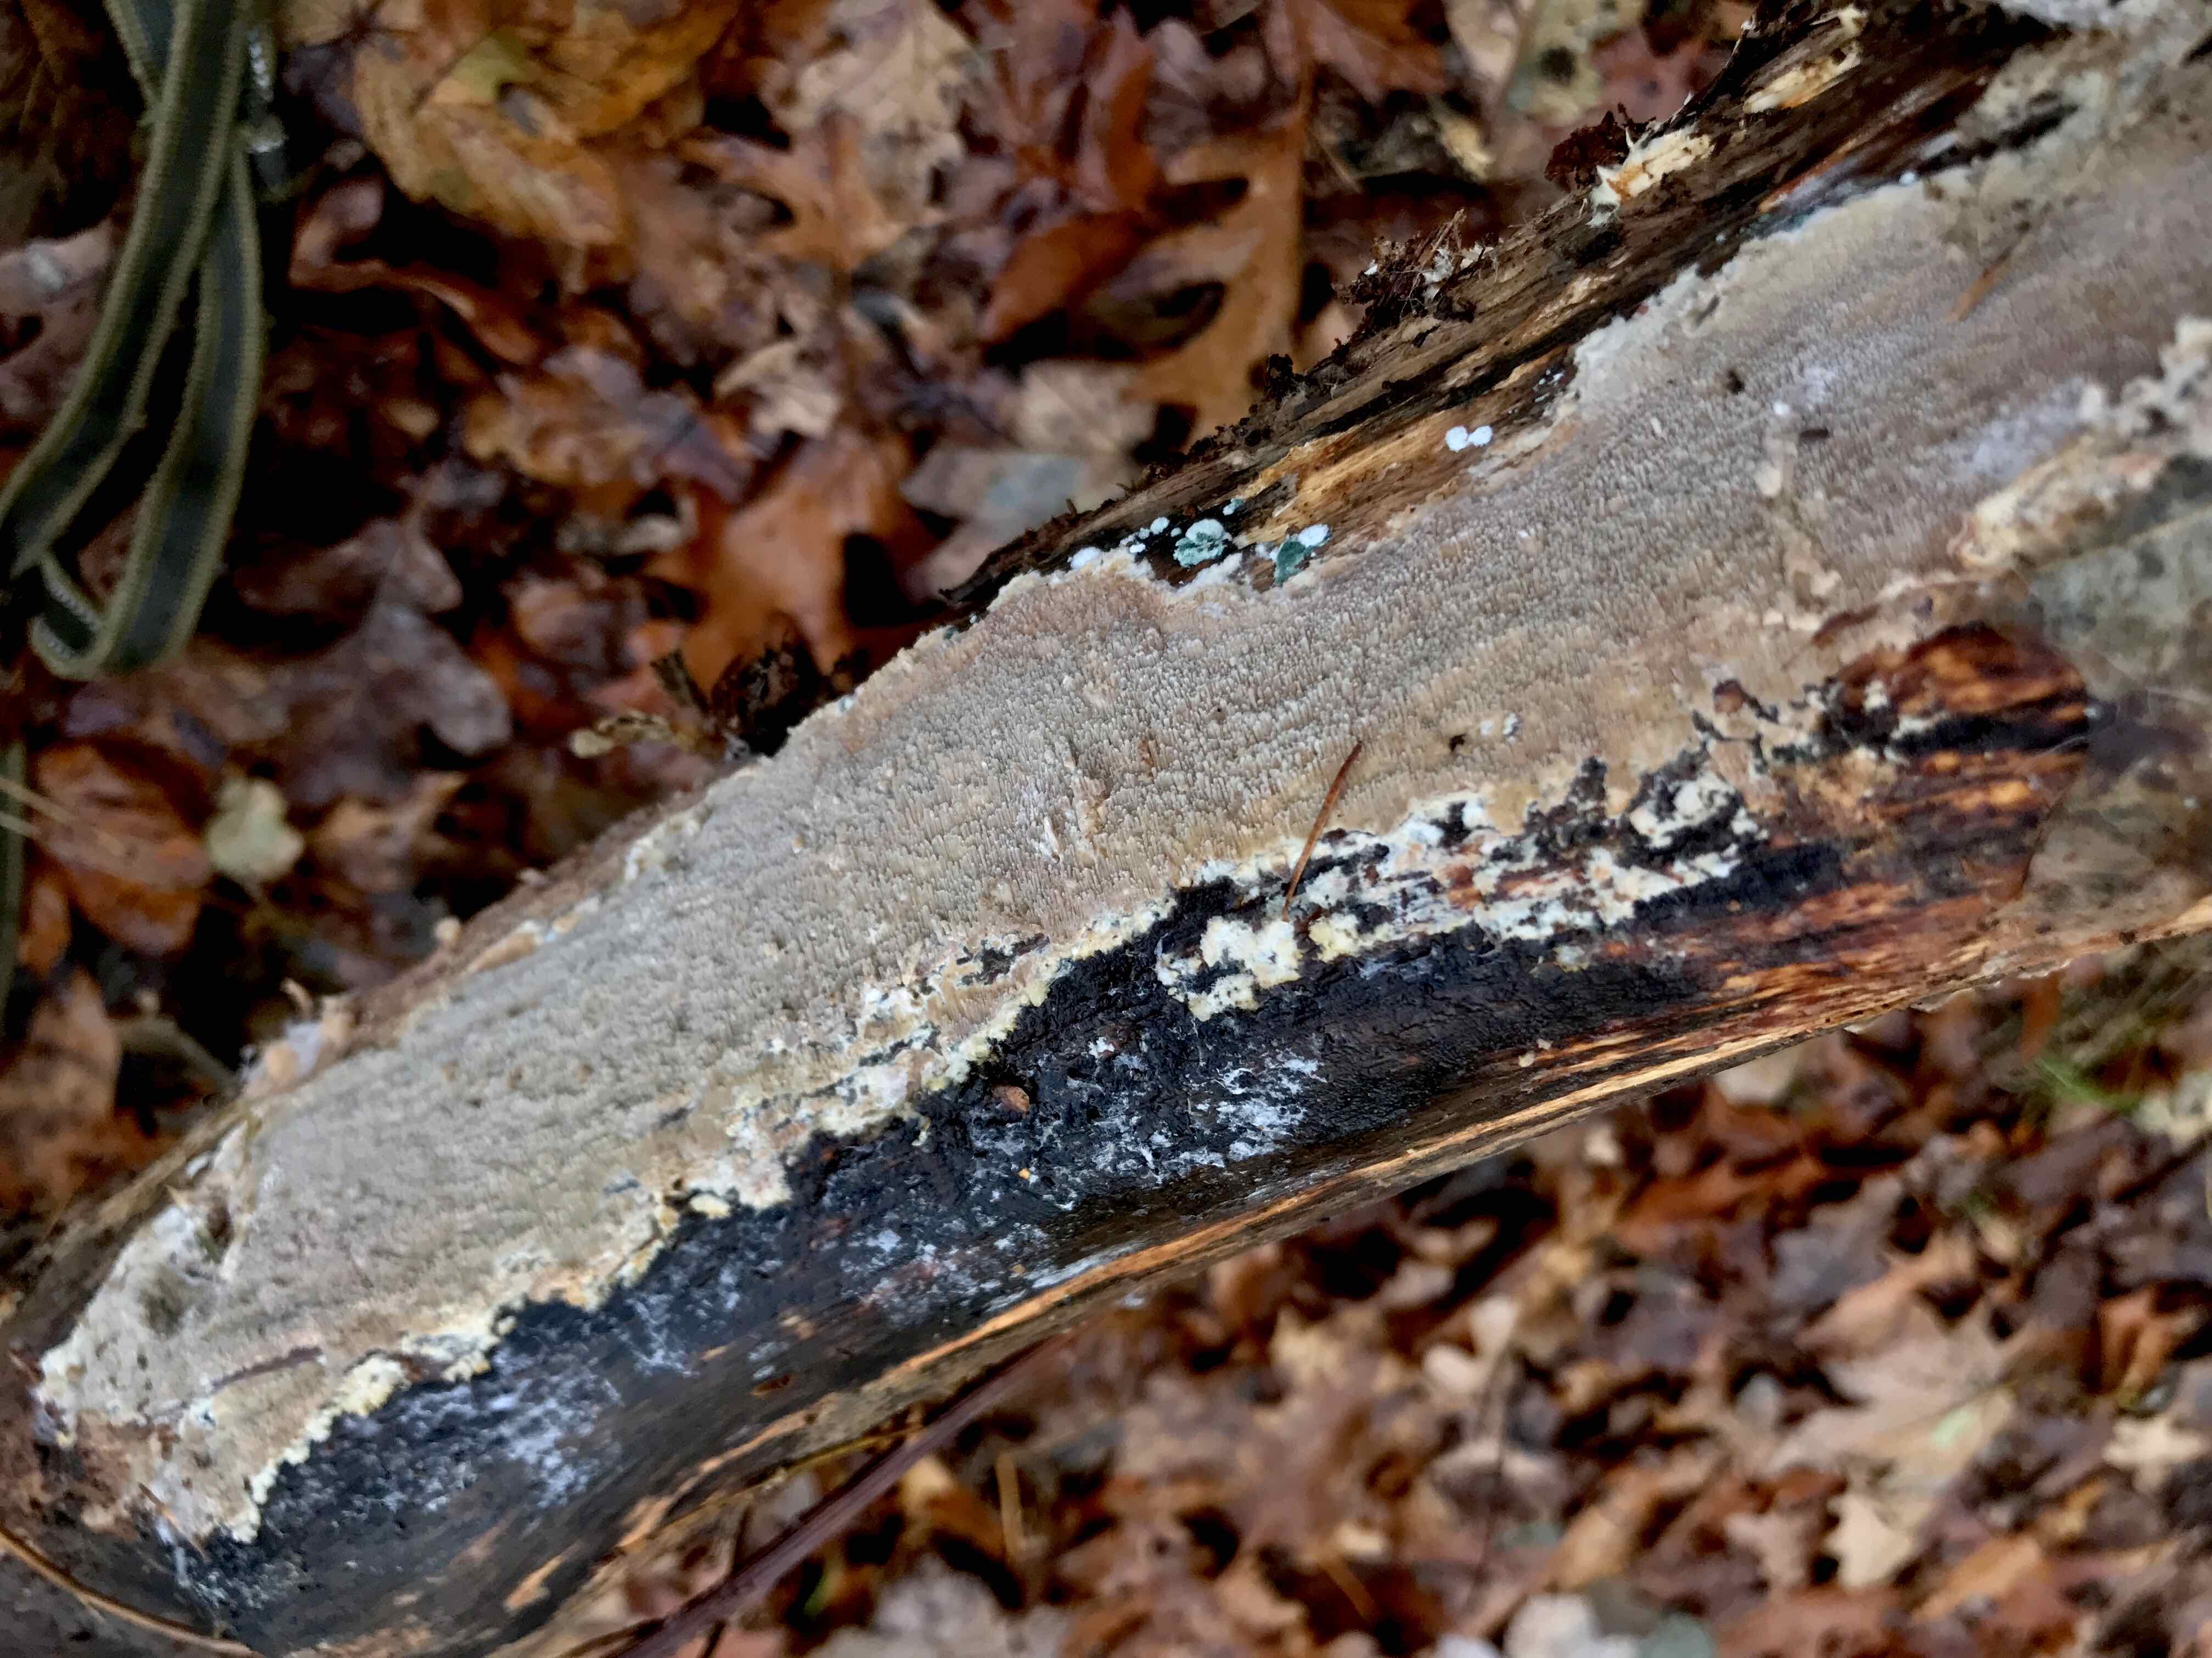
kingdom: Fungi
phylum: Basidiomycota
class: Agaricomycetes
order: Hymenochaetales
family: Schizoporaceae
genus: Schizopora
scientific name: Schizopora paradoxa
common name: hvid tandsvamp
